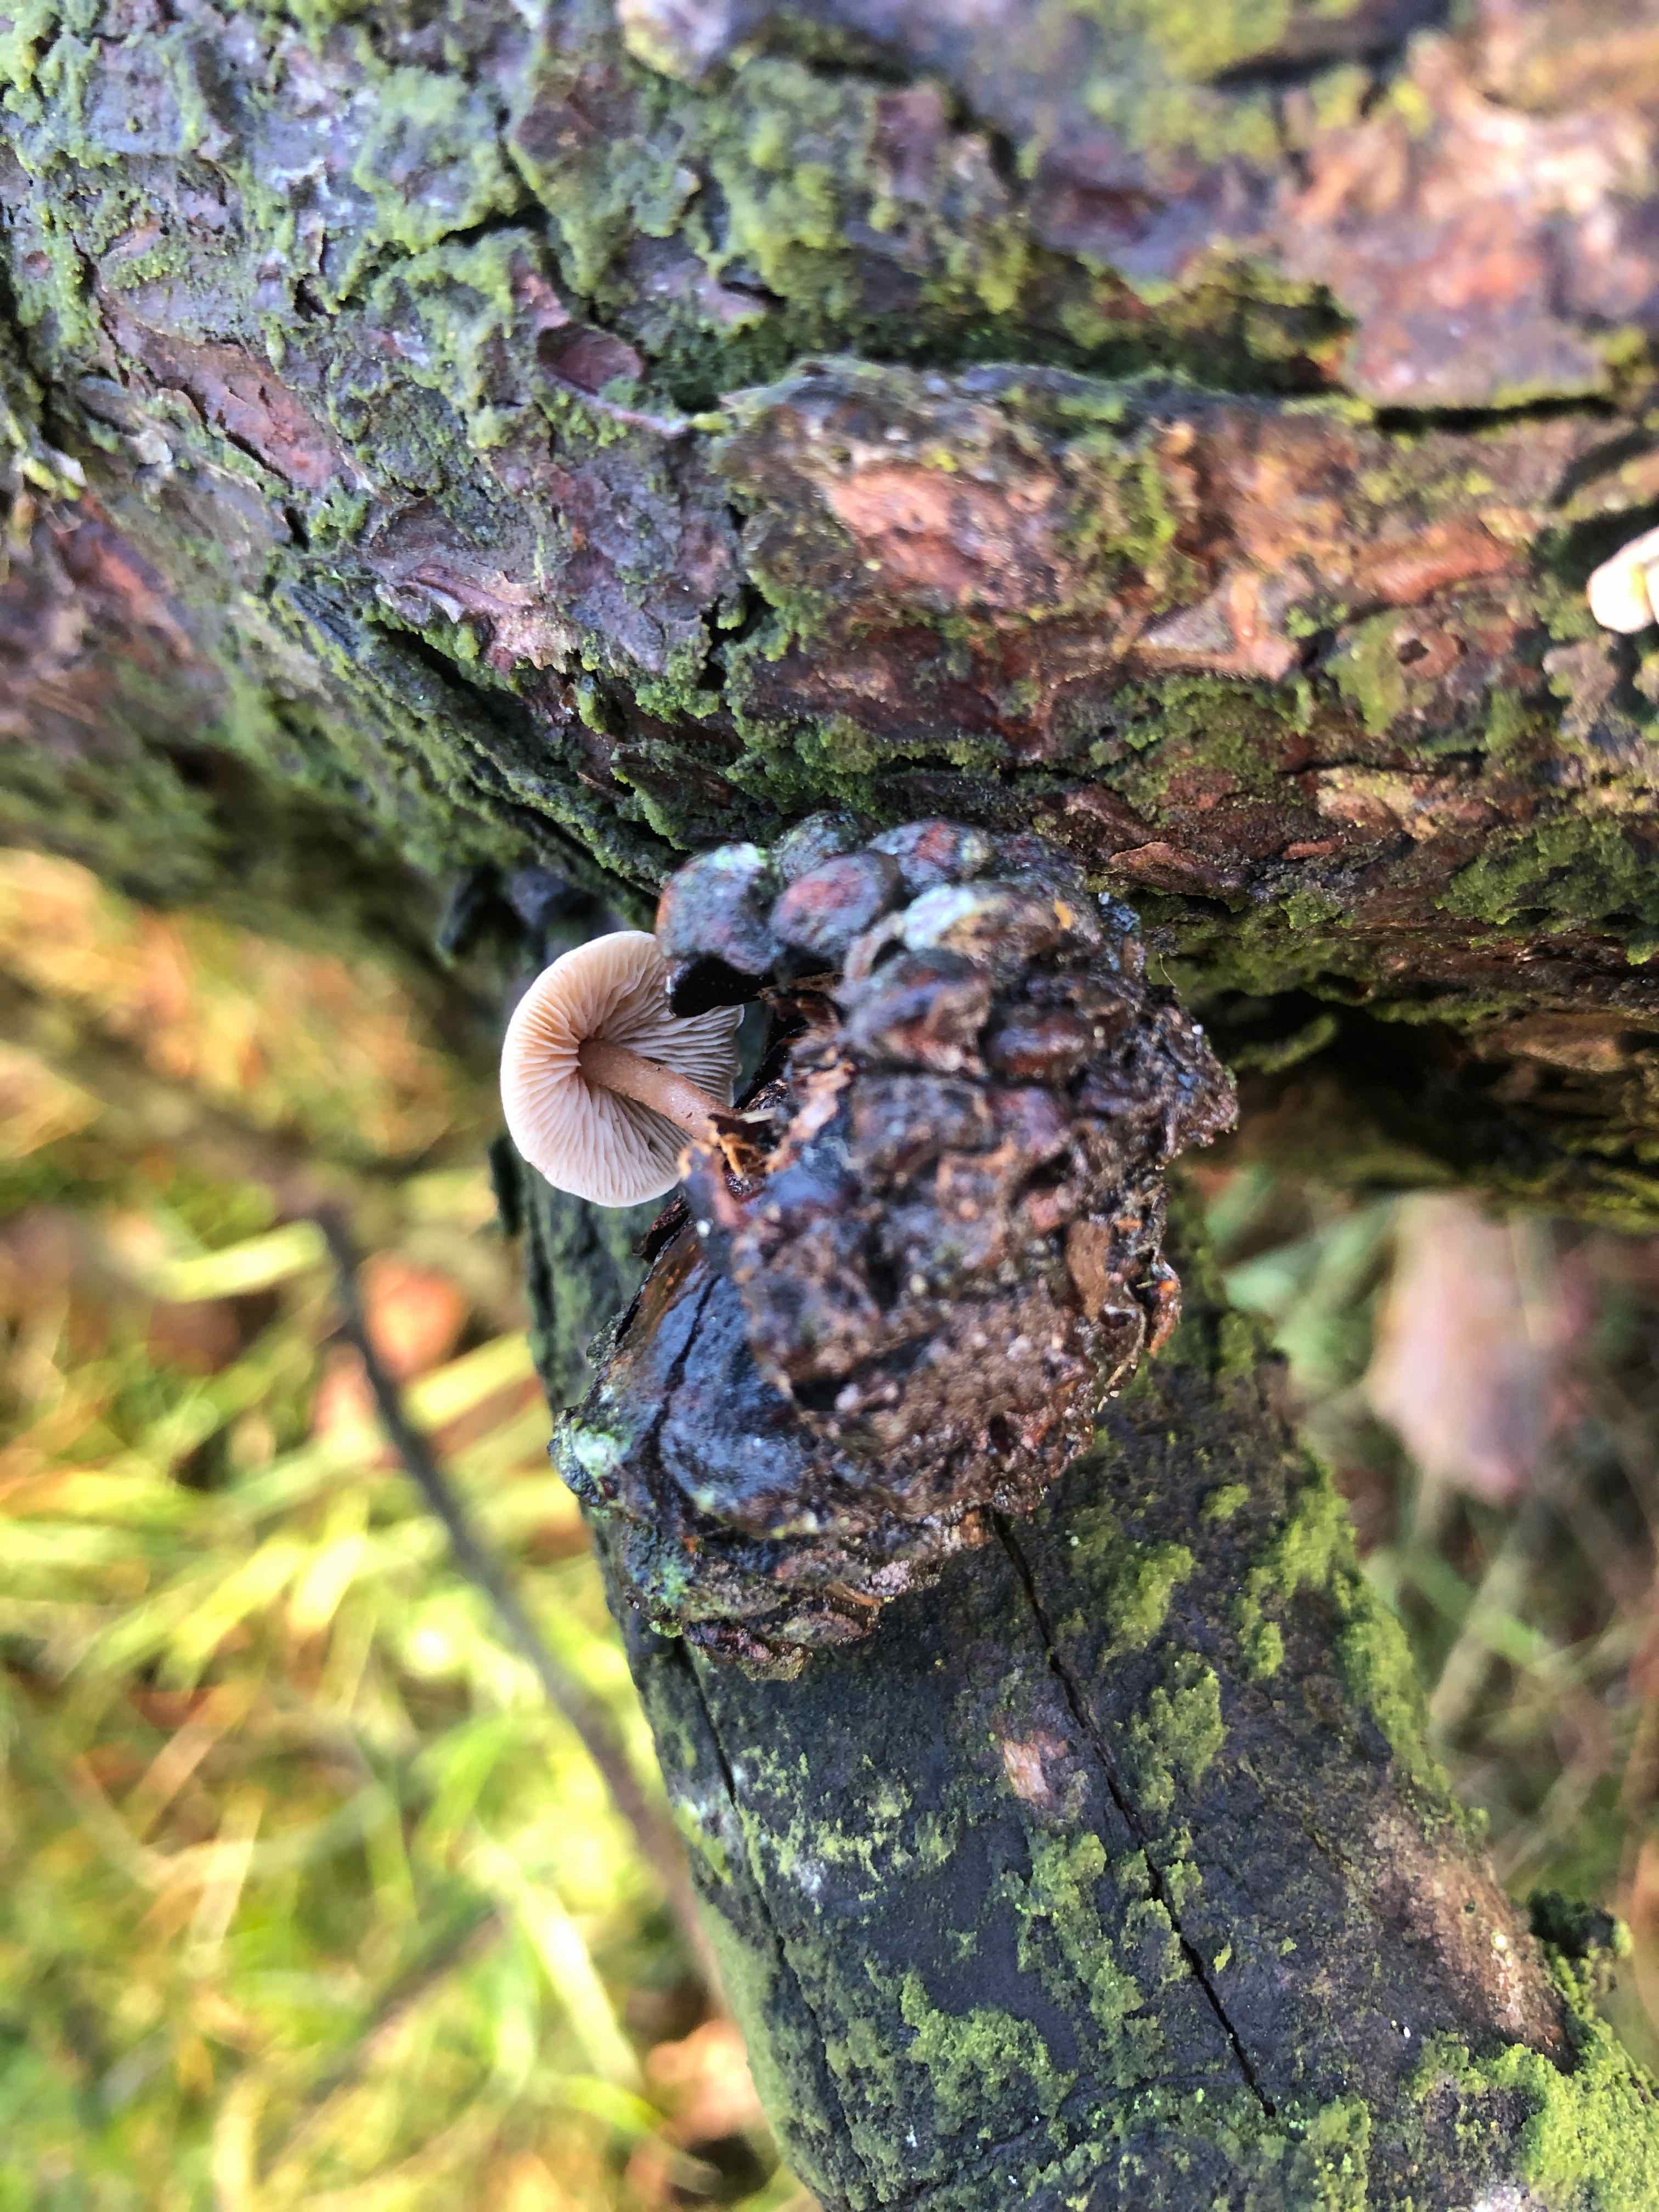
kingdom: Fungi
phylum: Basidiomycota
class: Agaricomycetes
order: Agaricales
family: Marasmiaceae
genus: Baeospora
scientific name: Baeospora myosura
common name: koglebruskhat
